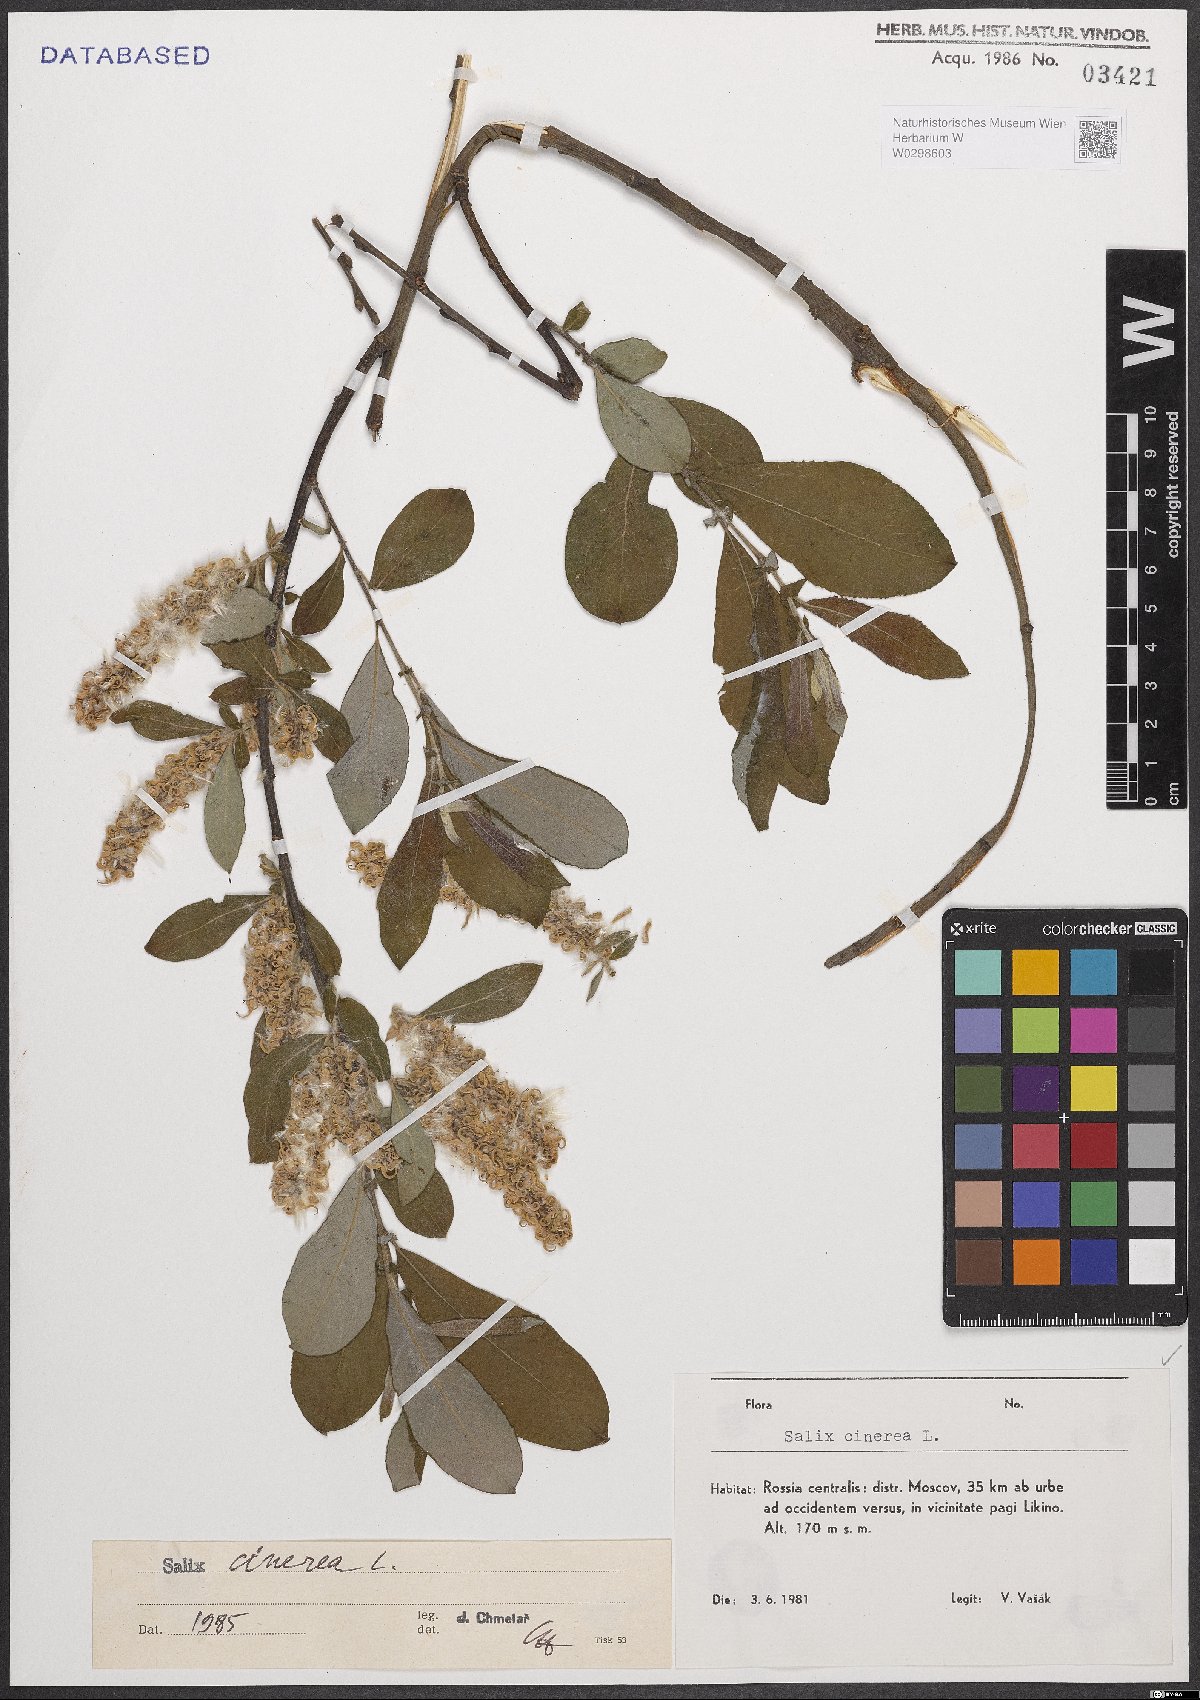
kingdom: Plantae
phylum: Tracheophyta
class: Magnoliopsida
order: Malpighiales
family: Salicaceae
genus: Salix
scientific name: Salix cinerea
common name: Common sallow
